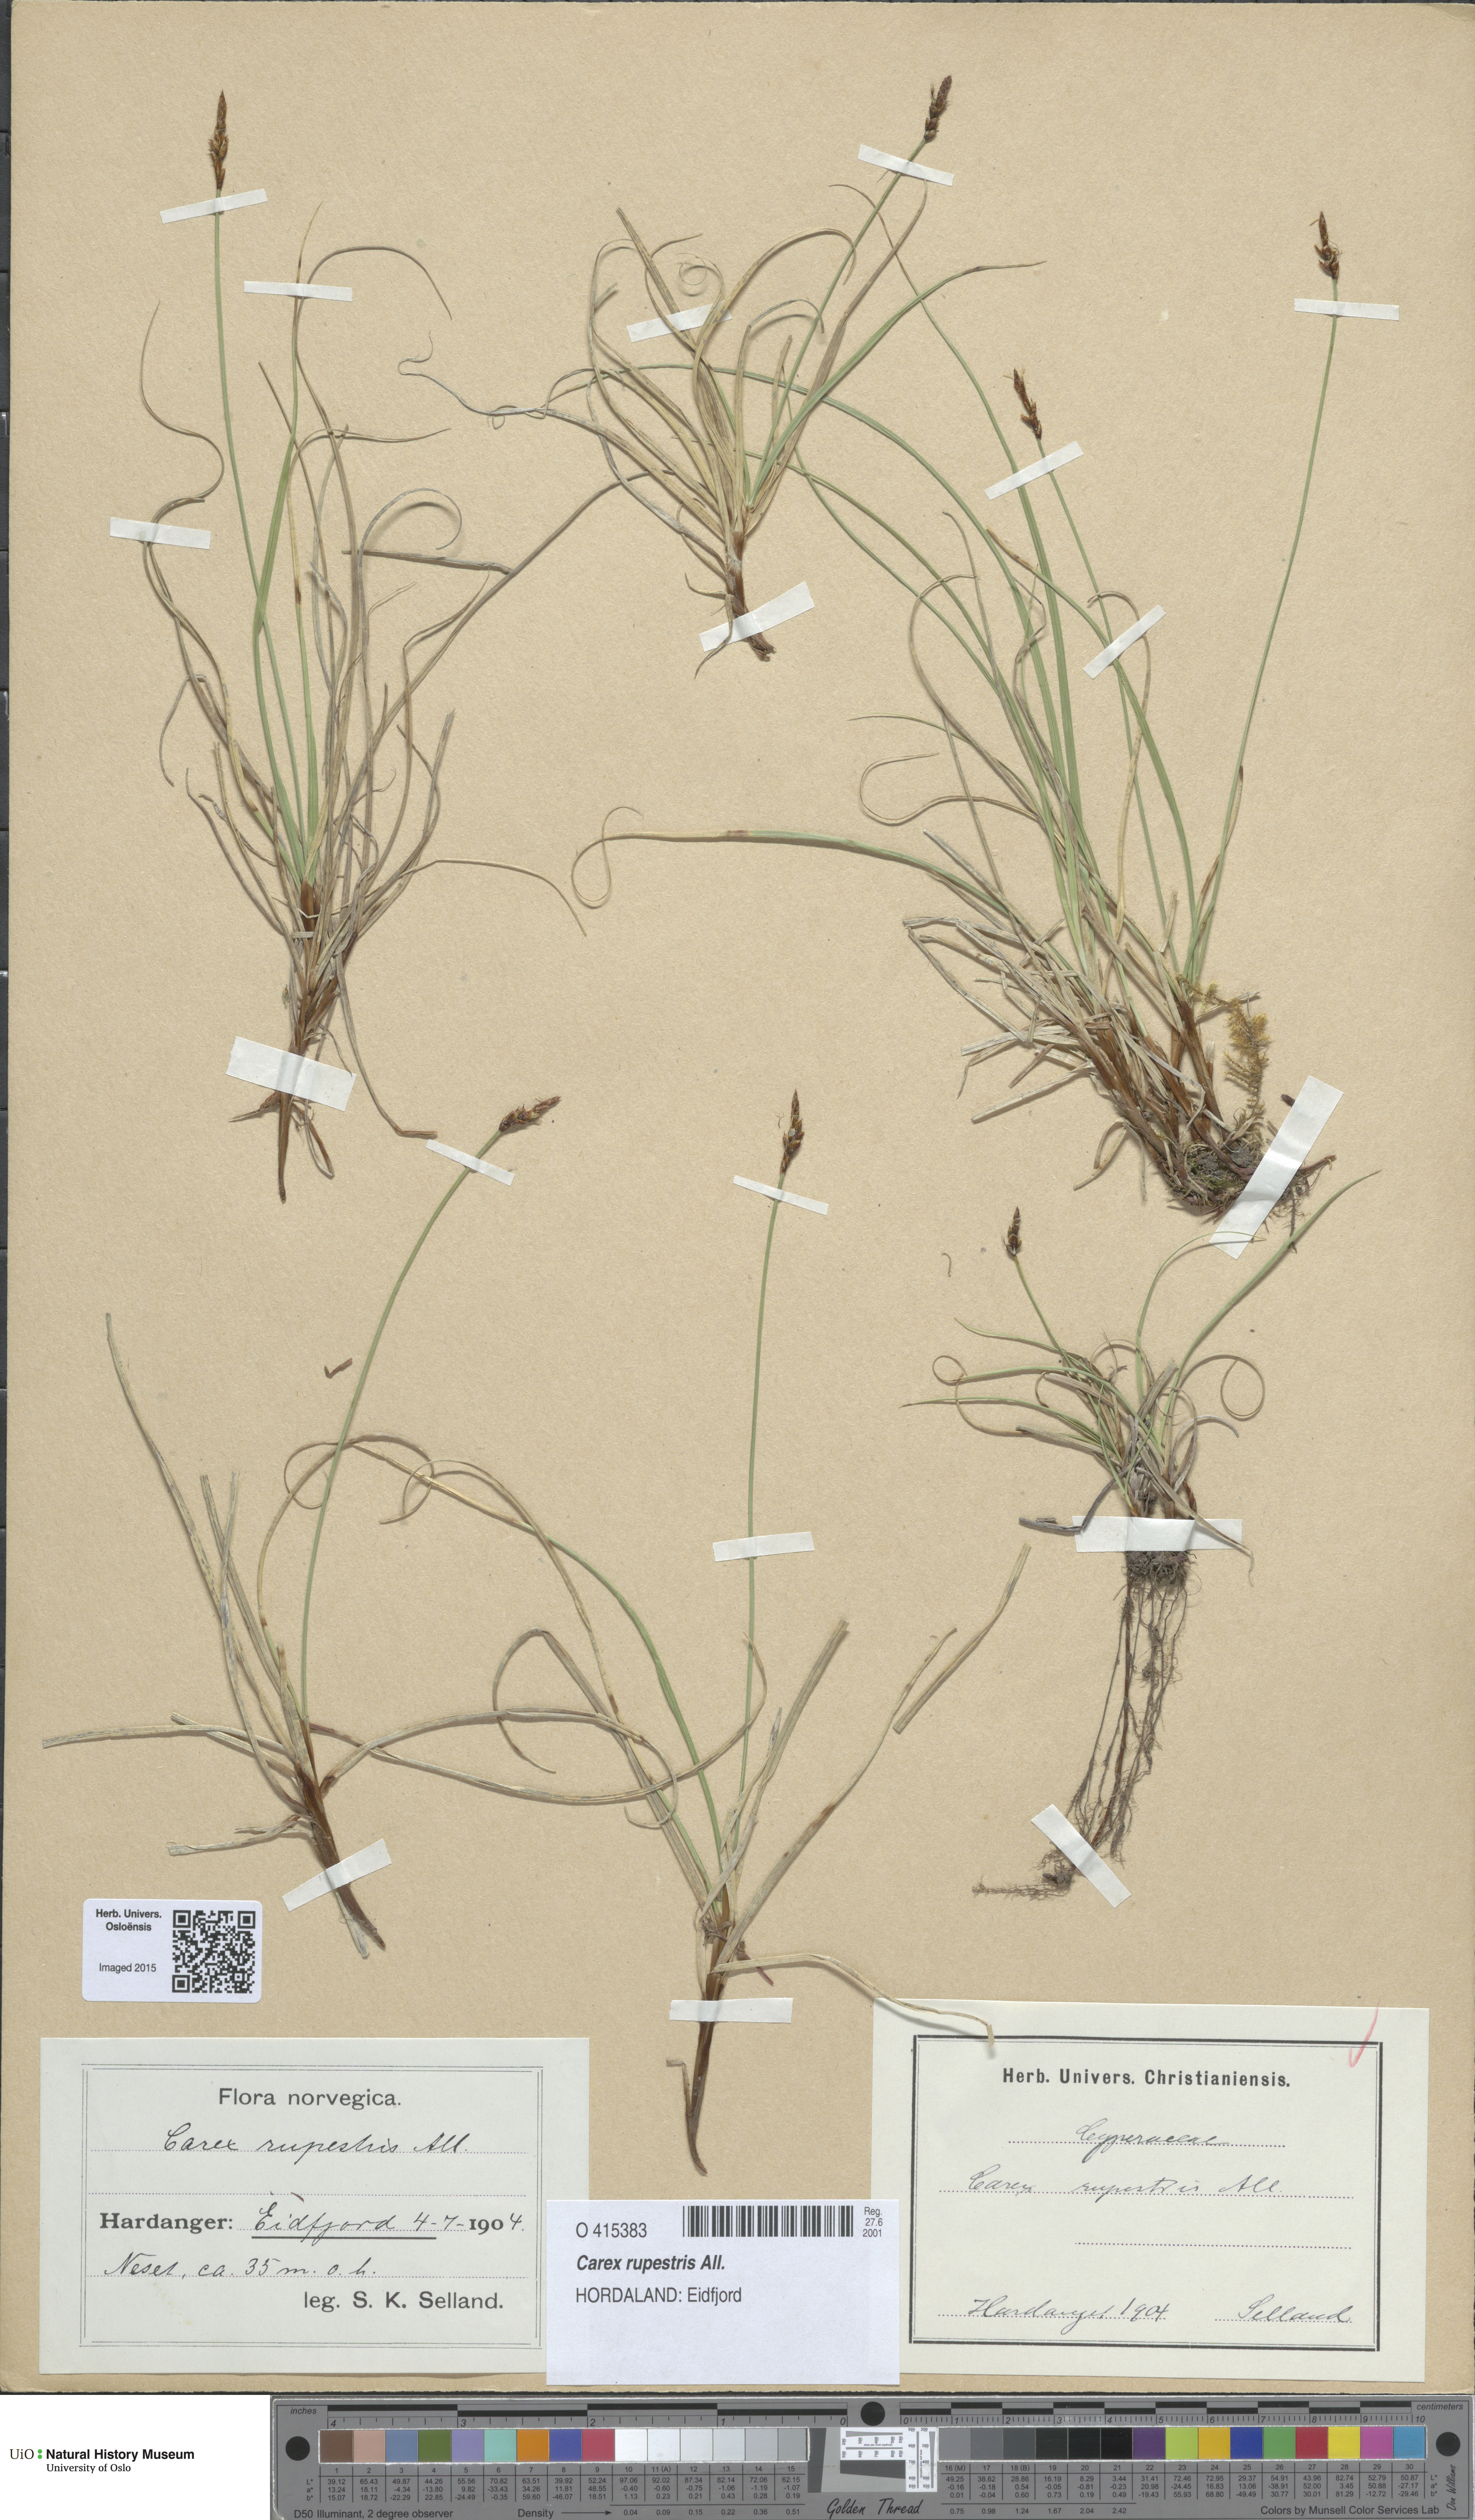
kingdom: Plantae
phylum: Tracheophyta
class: Liliopsida
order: Poales
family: Cyperaceae
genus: Carex
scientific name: Carex rupestris
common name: Rock sedge
